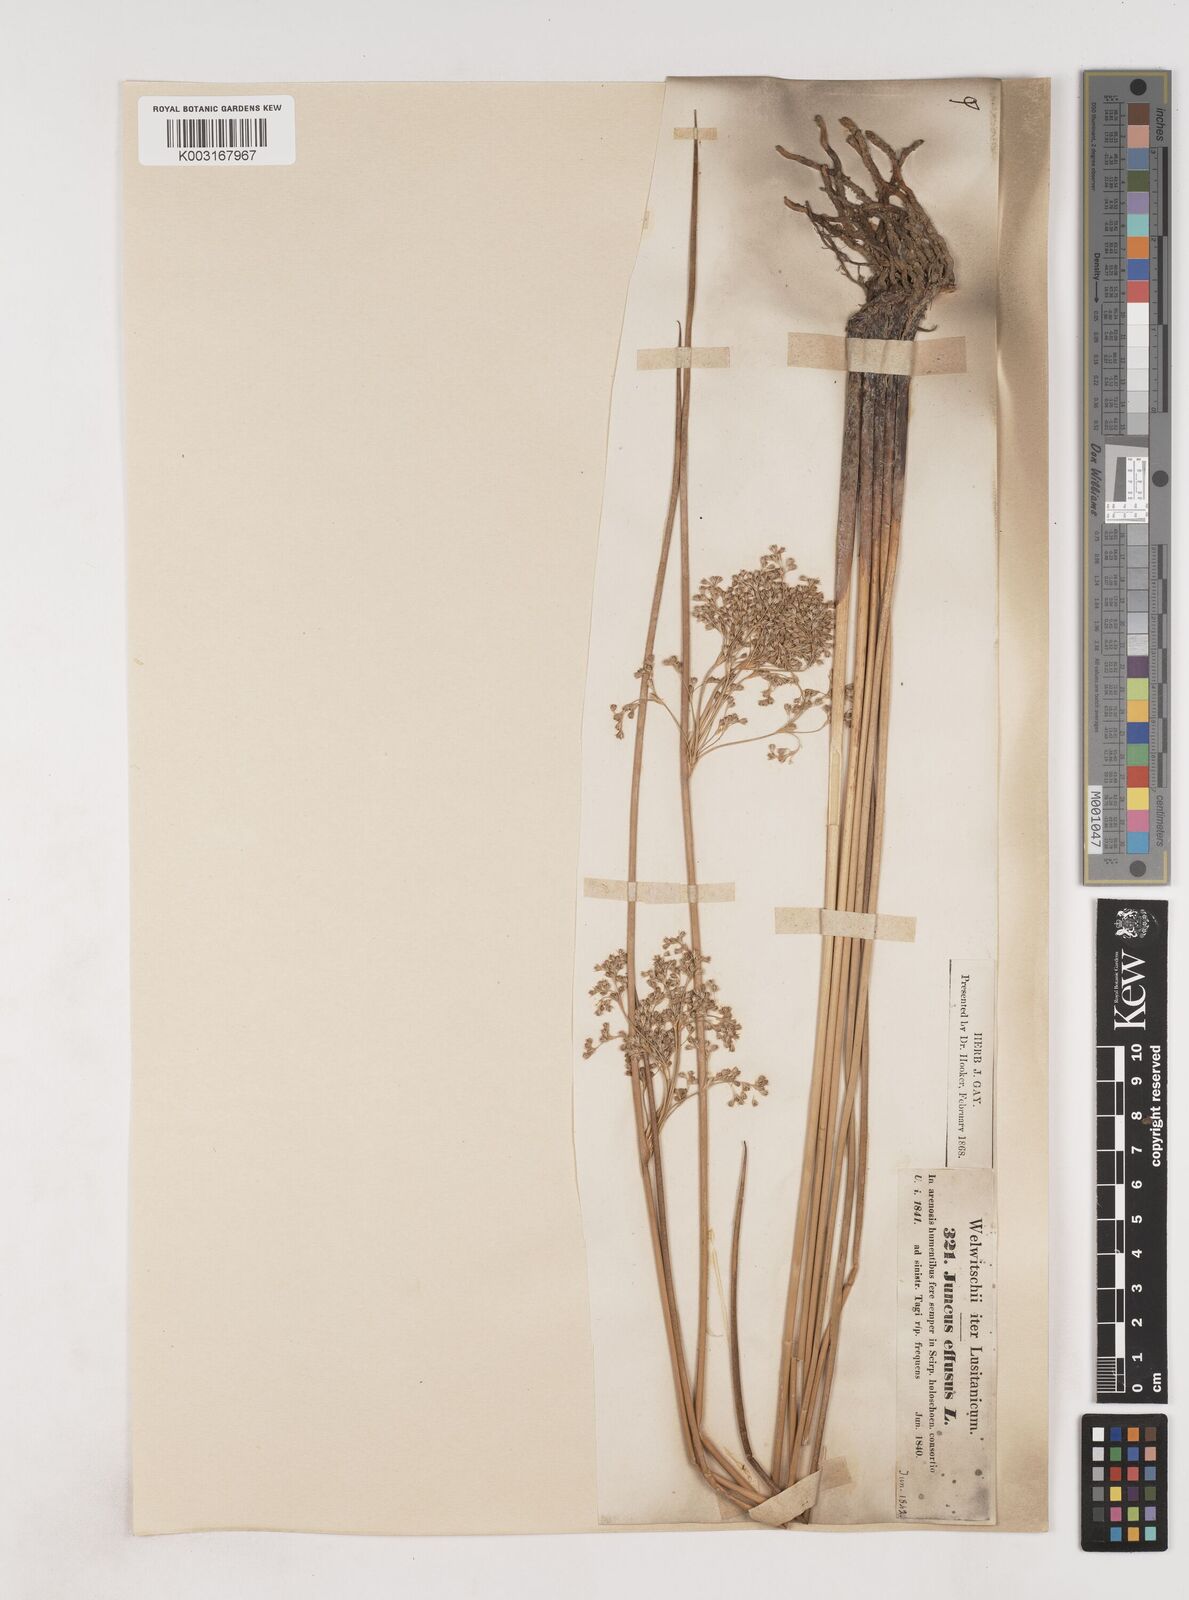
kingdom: Plantae
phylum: Tracheophyta
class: Liliopsida
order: Poales
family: Juncaceae
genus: Juncus
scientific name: Juncus effusus
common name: Soft rush
